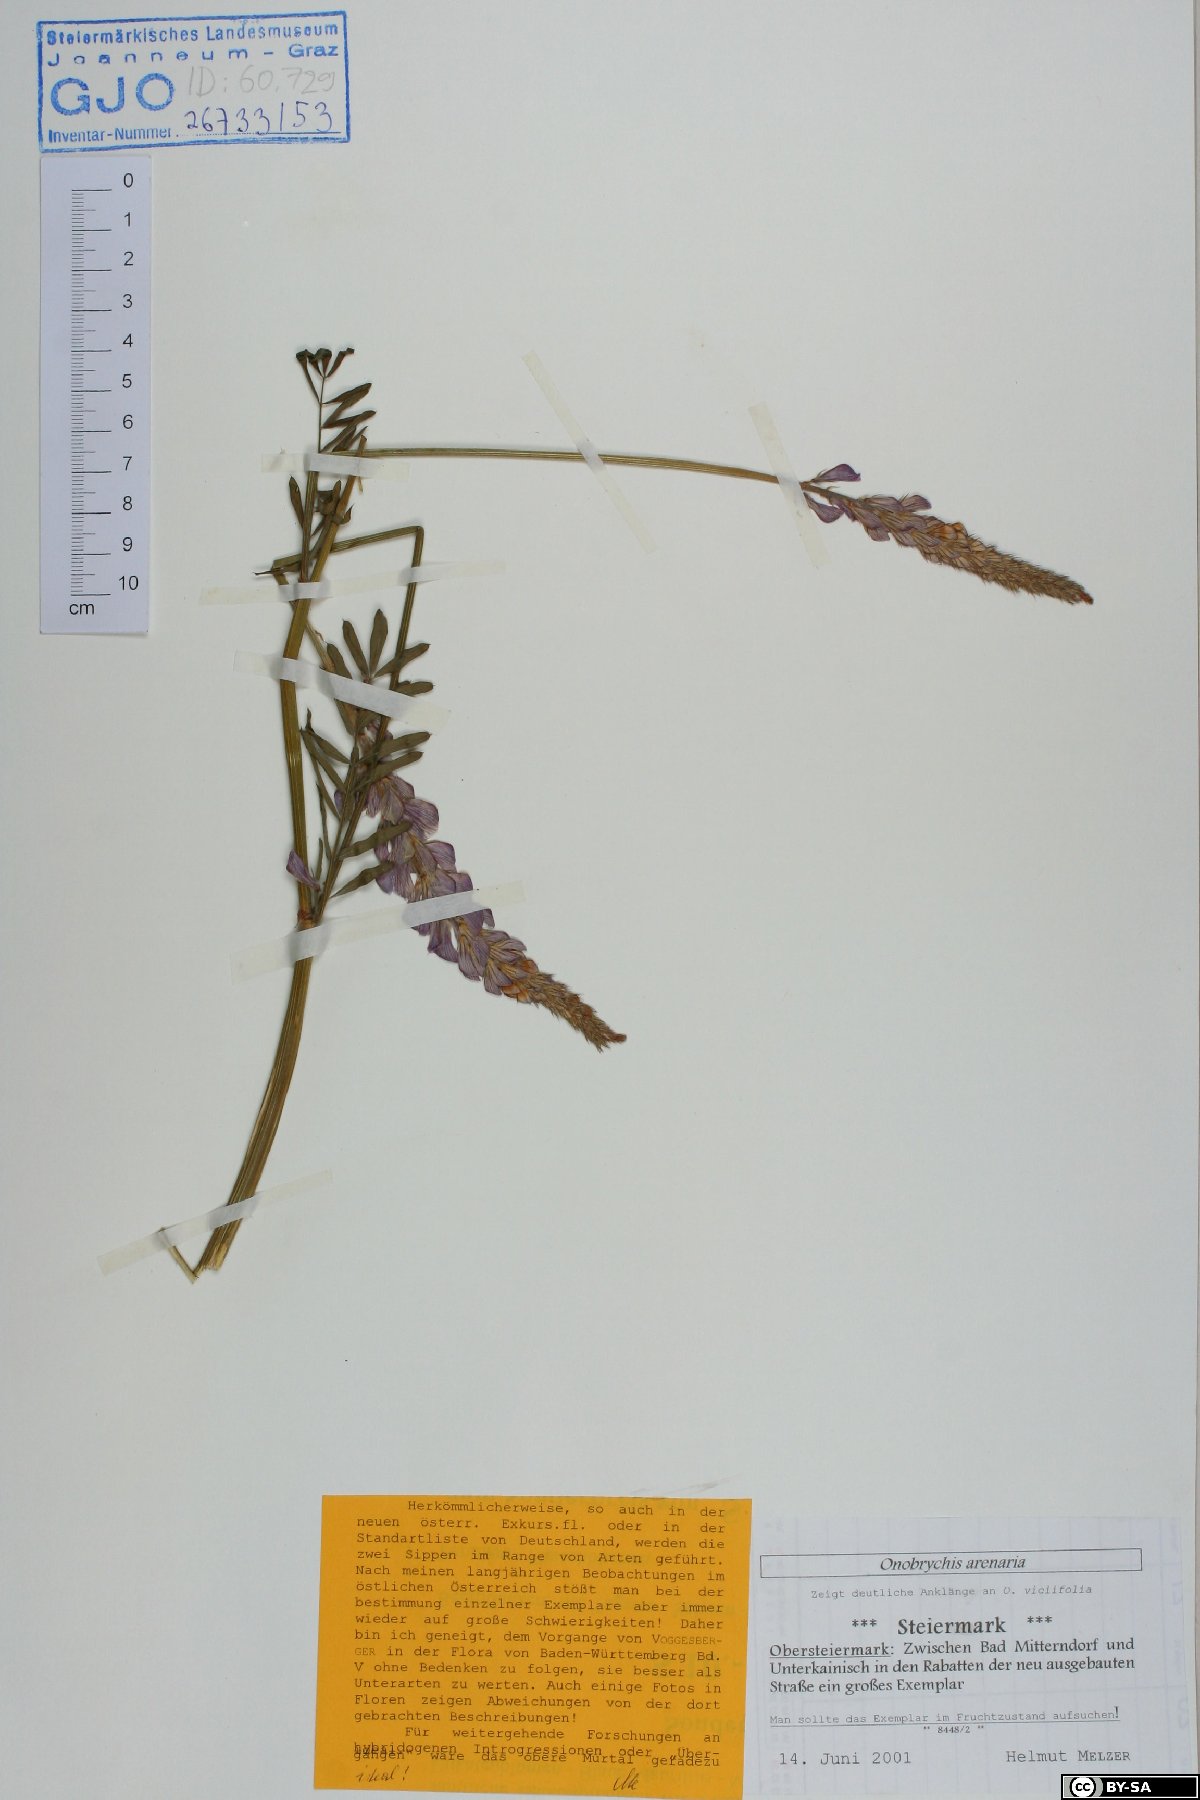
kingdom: Plantae
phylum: Tracheophyta
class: Magnoliopsida
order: Fabales
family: Fabaceae
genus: Onobrychis
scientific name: Onobrychis arenaria
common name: Sand esparcet
